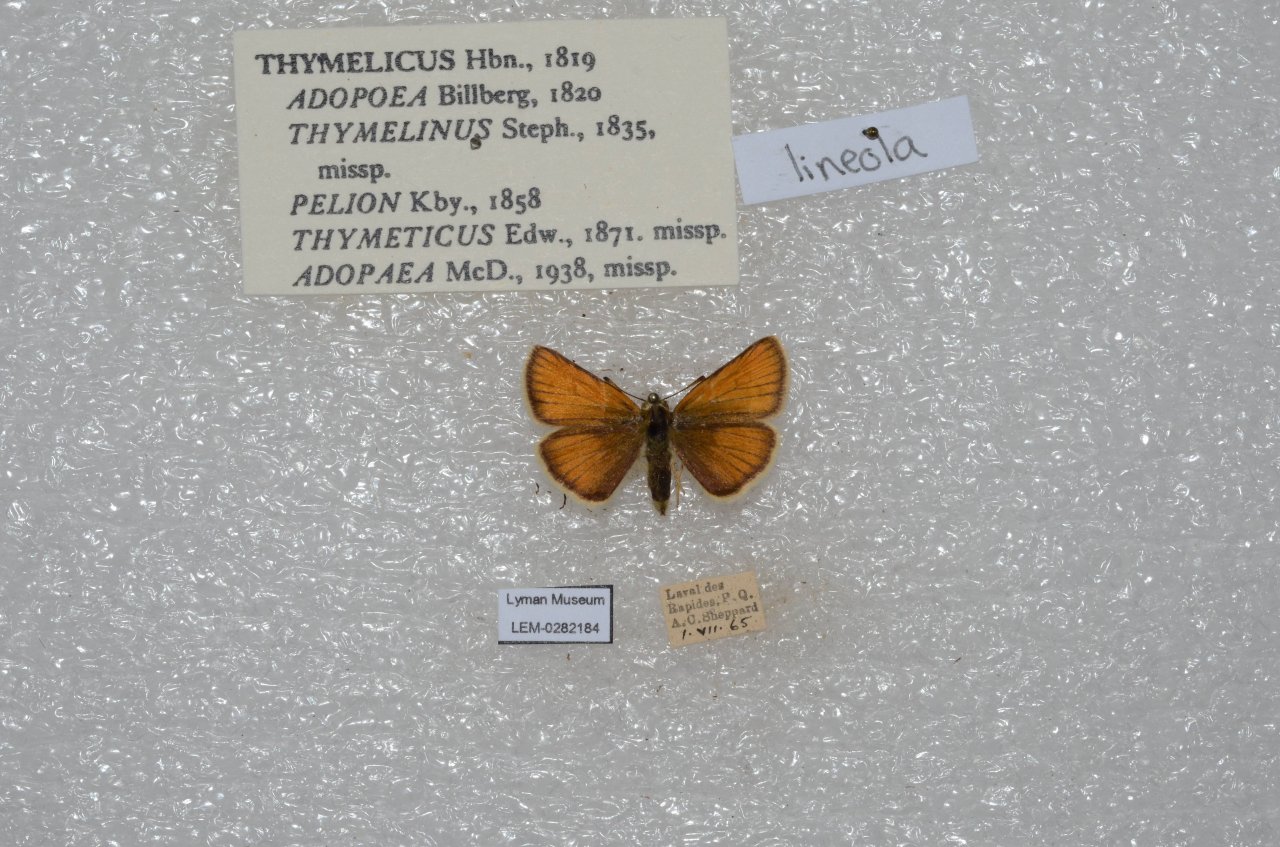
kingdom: Animalia
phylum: Arthropoda
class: Insecta
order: Lepidoptera
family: Hesperiidae
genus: Thymelicus
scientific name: Thymelicus lineola
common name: European Skipper
